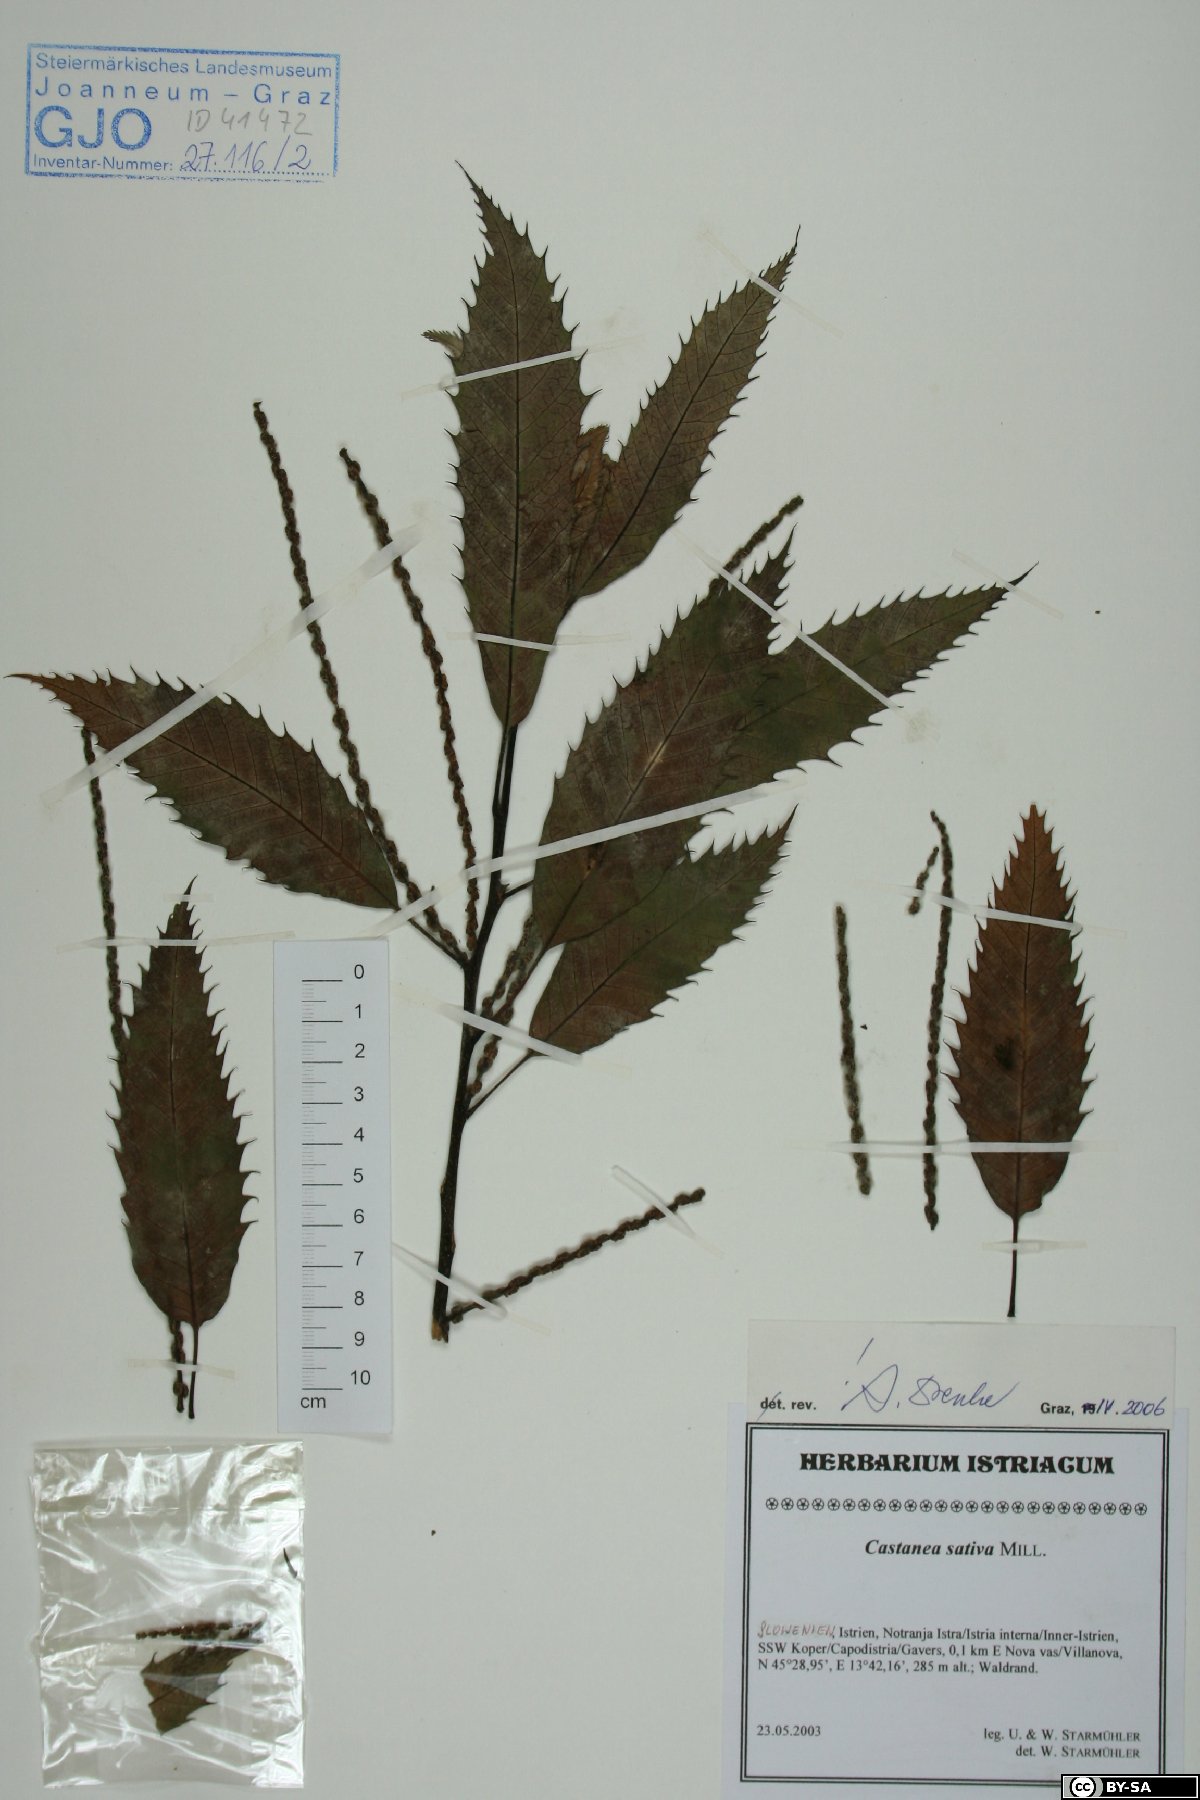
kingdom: Plantae
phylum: Tracheophyta
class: Magnoliopsida
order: Fagales
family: Fagaceae
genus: Castanea
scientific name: Castanea sativa
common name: Sweet chestnut
